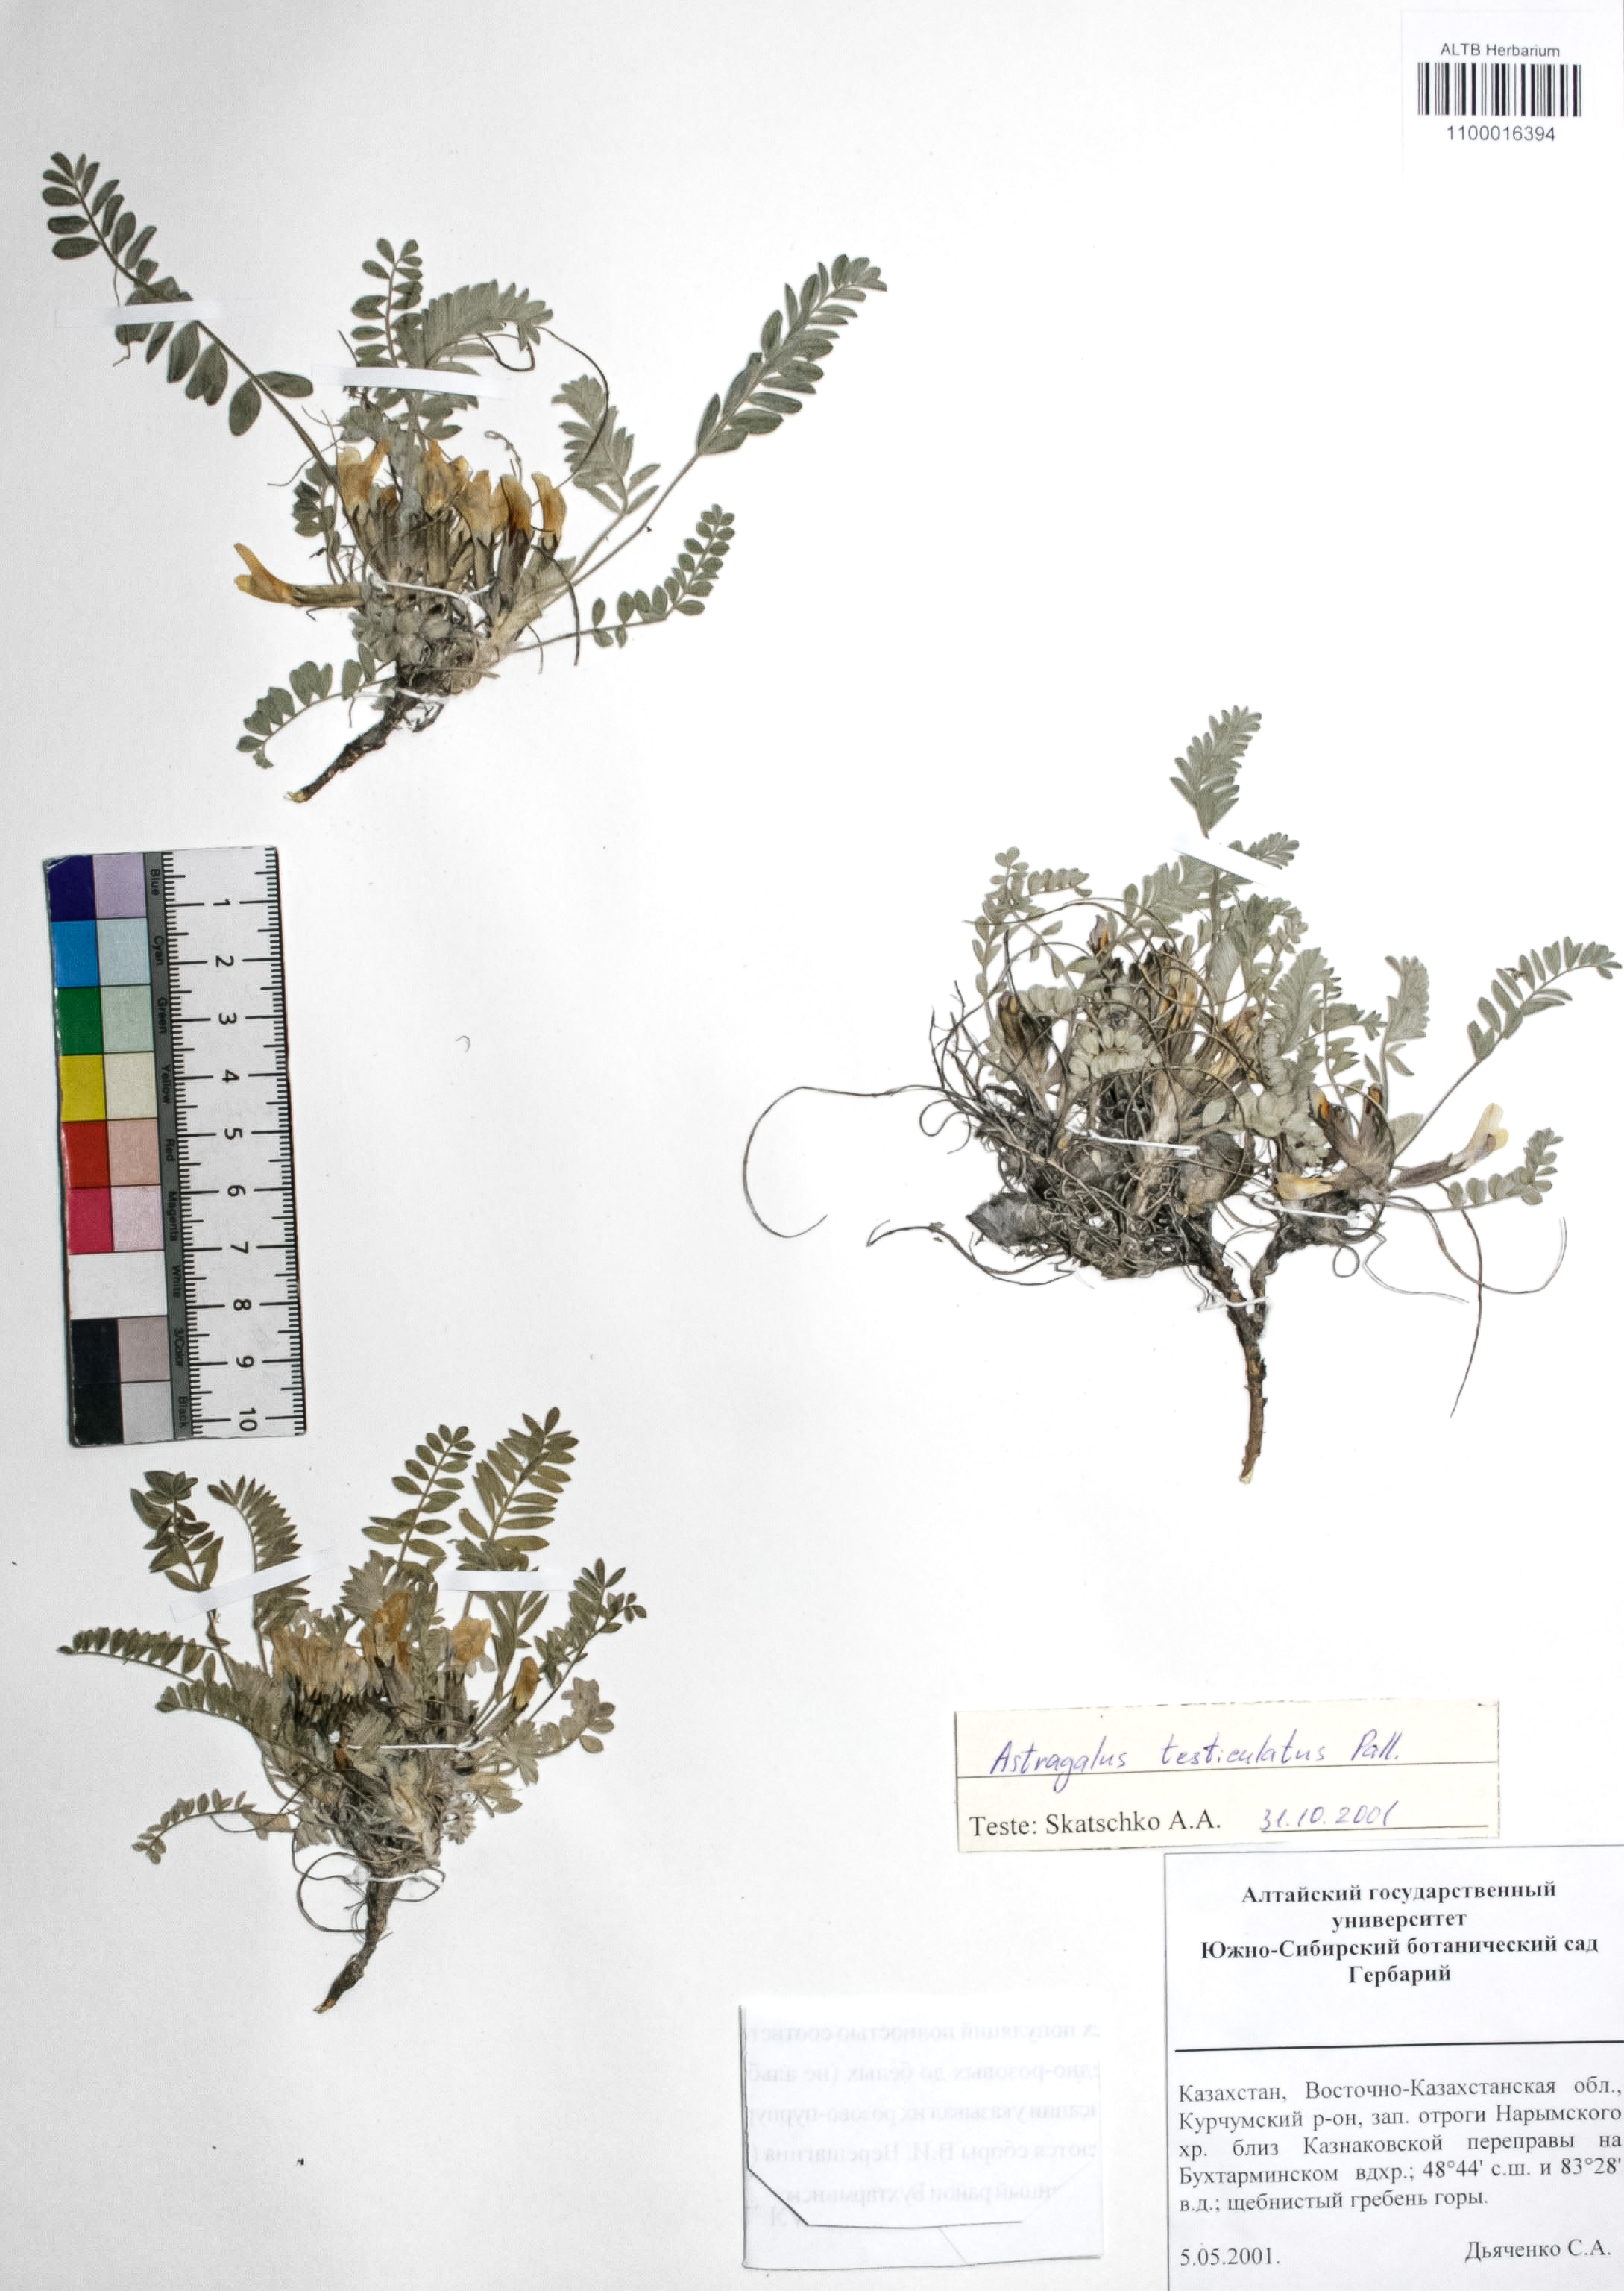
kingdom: Plantae
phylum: Tracheophyta
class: Magnoliopsida
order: Fabales
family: Fabaceae
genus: Astragalus
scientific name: Astragalus testiculatus
